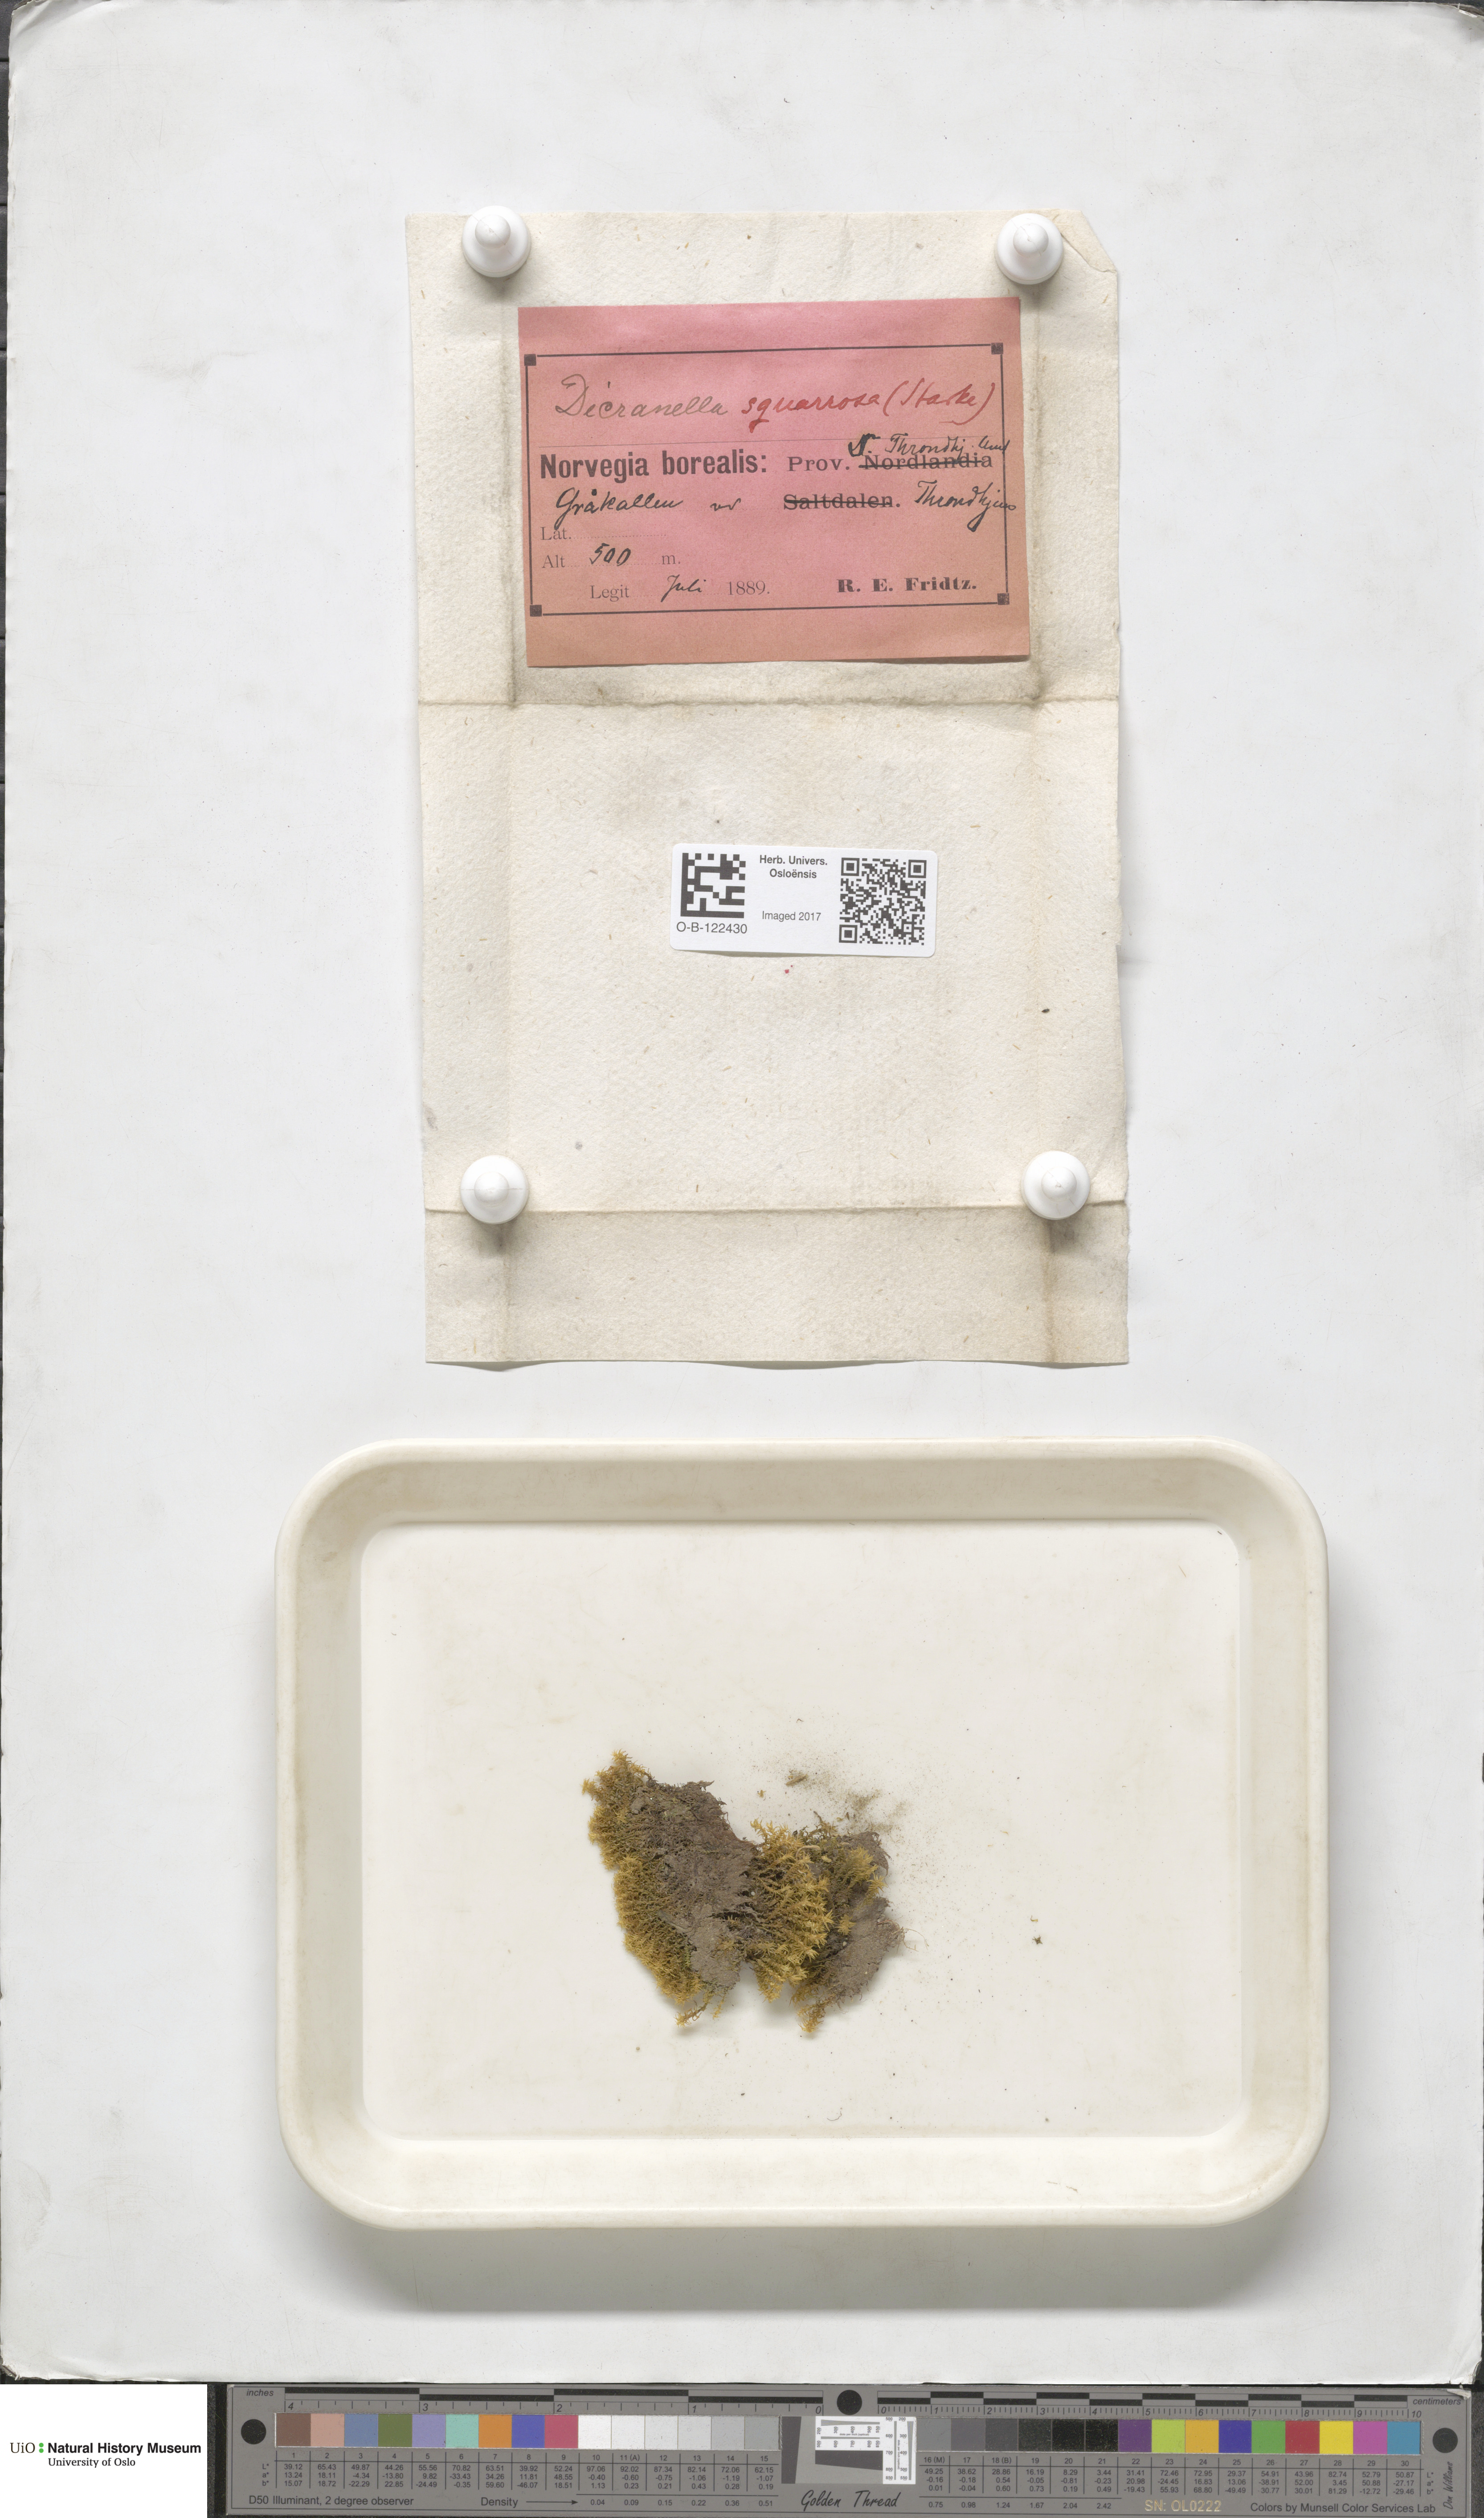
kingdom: Plantae
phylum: Bryophyta
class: Bryopsida
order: Dicranales
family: Aongstroemiaceae
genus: Diobelonella
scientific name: Diobelonella palustris
